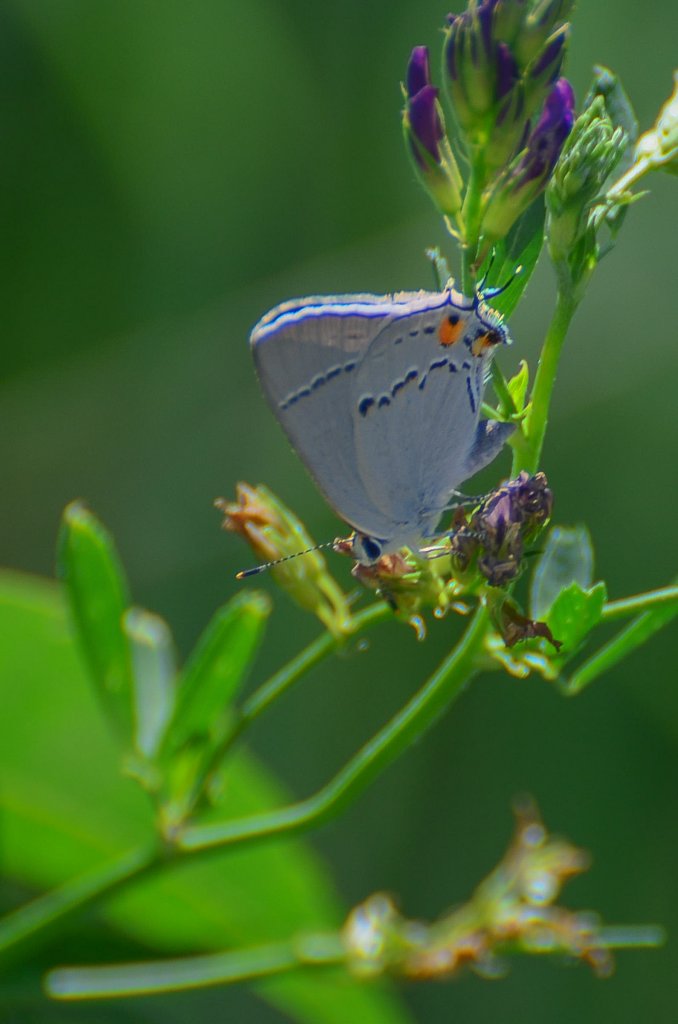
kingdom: Animalia
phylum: Arthropoda
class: Insecta
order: Lepidoptera
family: Lycaenidae
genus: Strymon
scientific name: Strymon melinus
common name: Gray Hairstreak
